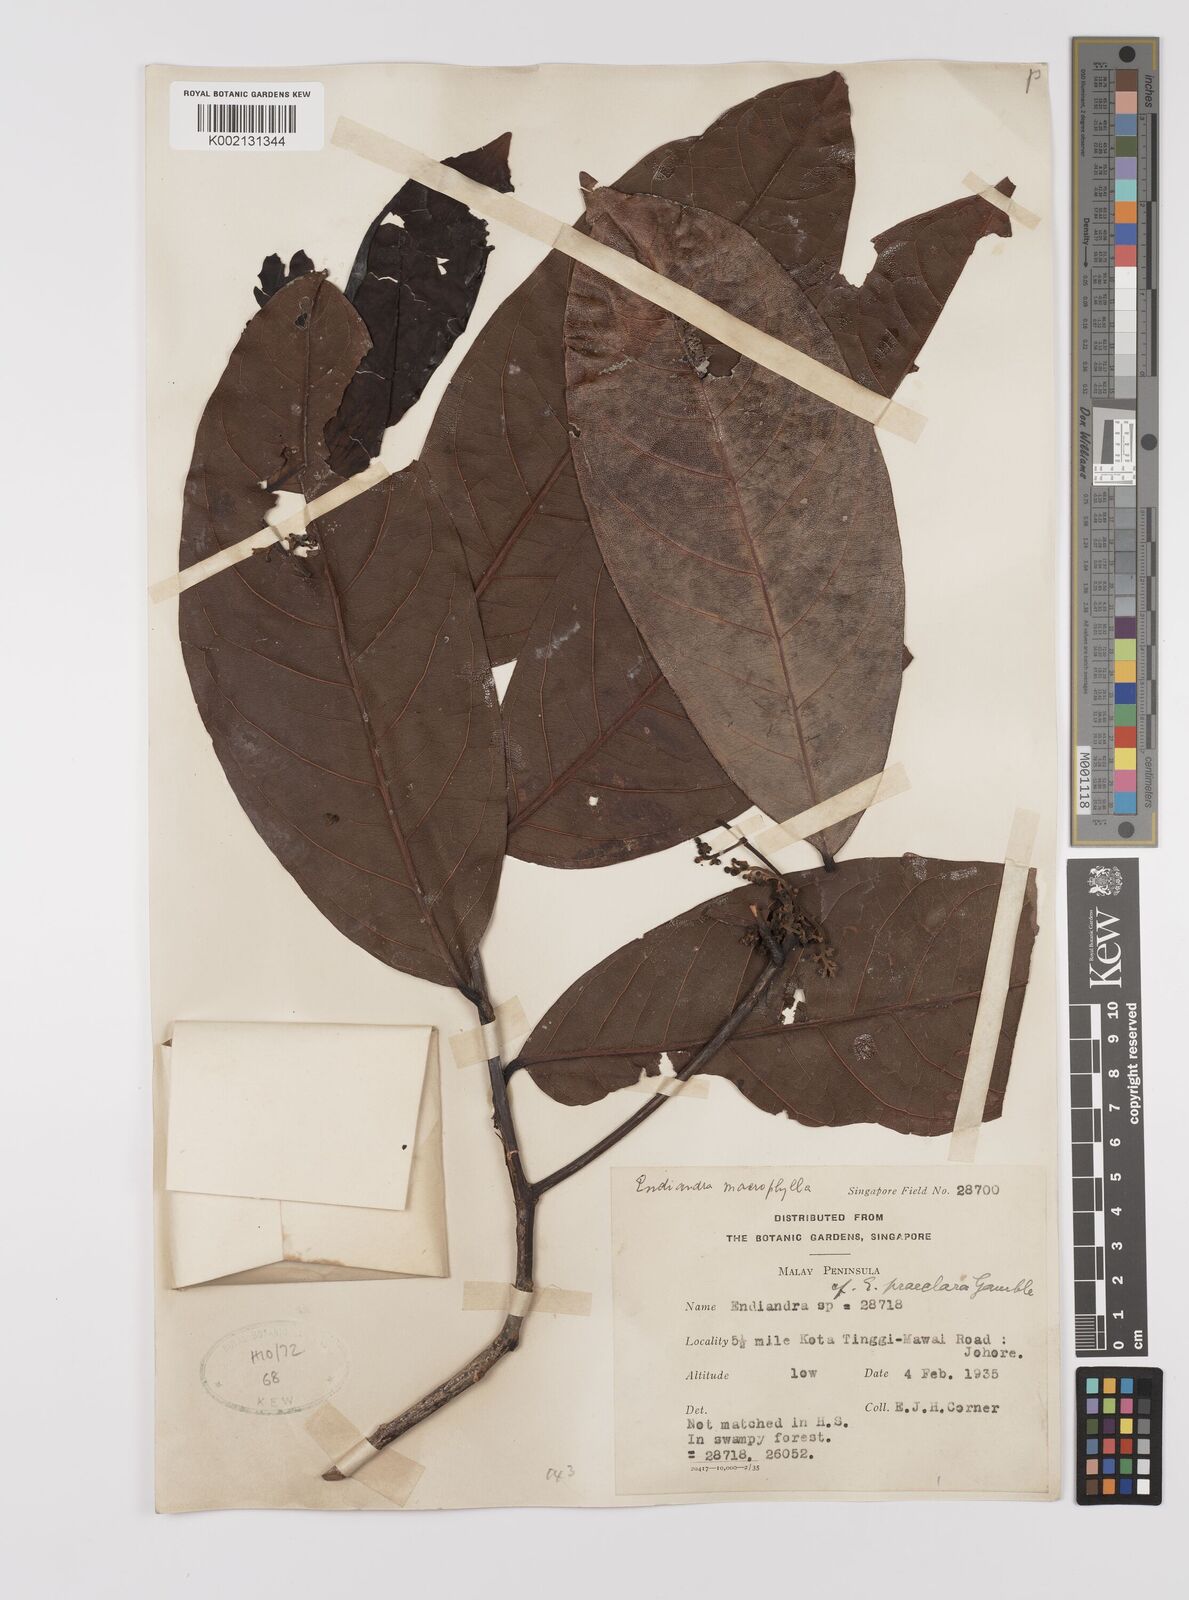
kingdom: Plantae
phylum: Tracheophyta
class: Magnoliopsida
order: Laurales
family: Lauraceae
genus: Endiandra
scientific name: Endiandra macrophylla
